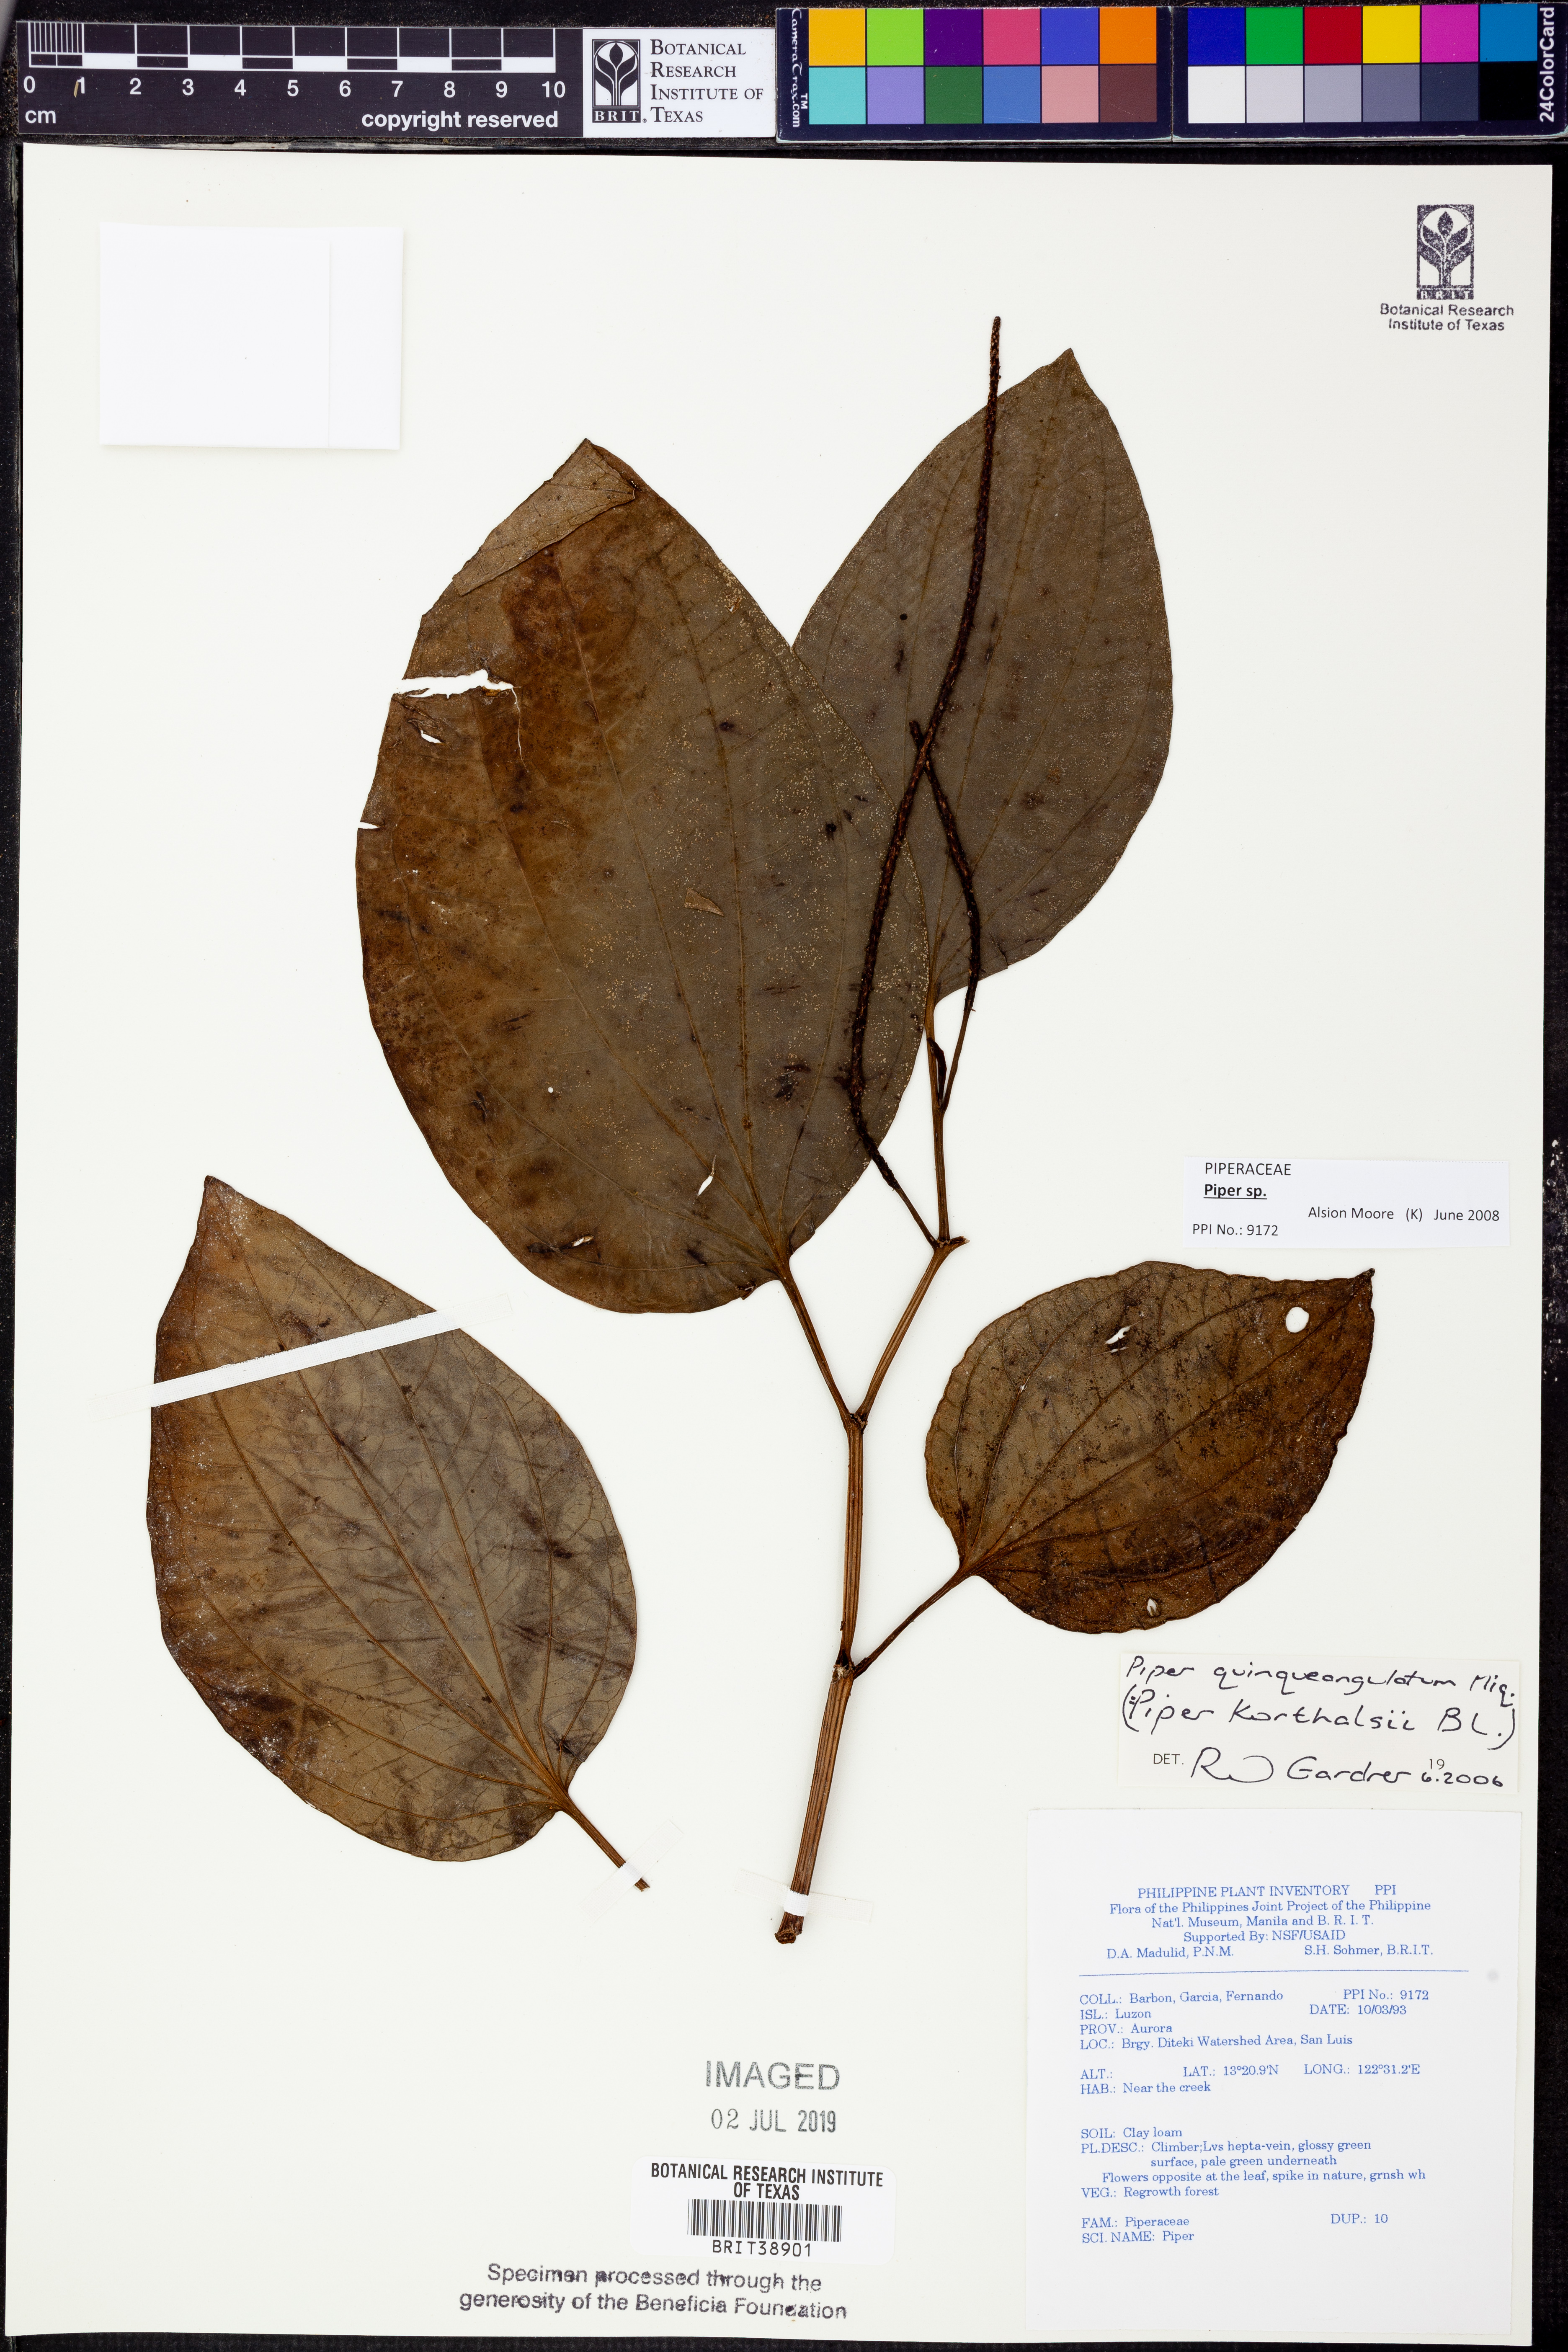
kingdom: Plantae
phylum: Tracheophyta
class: Magnoliopsida
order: Piperales
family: Piperaceae
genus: Piper
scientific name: Piper quinqueangulatum
